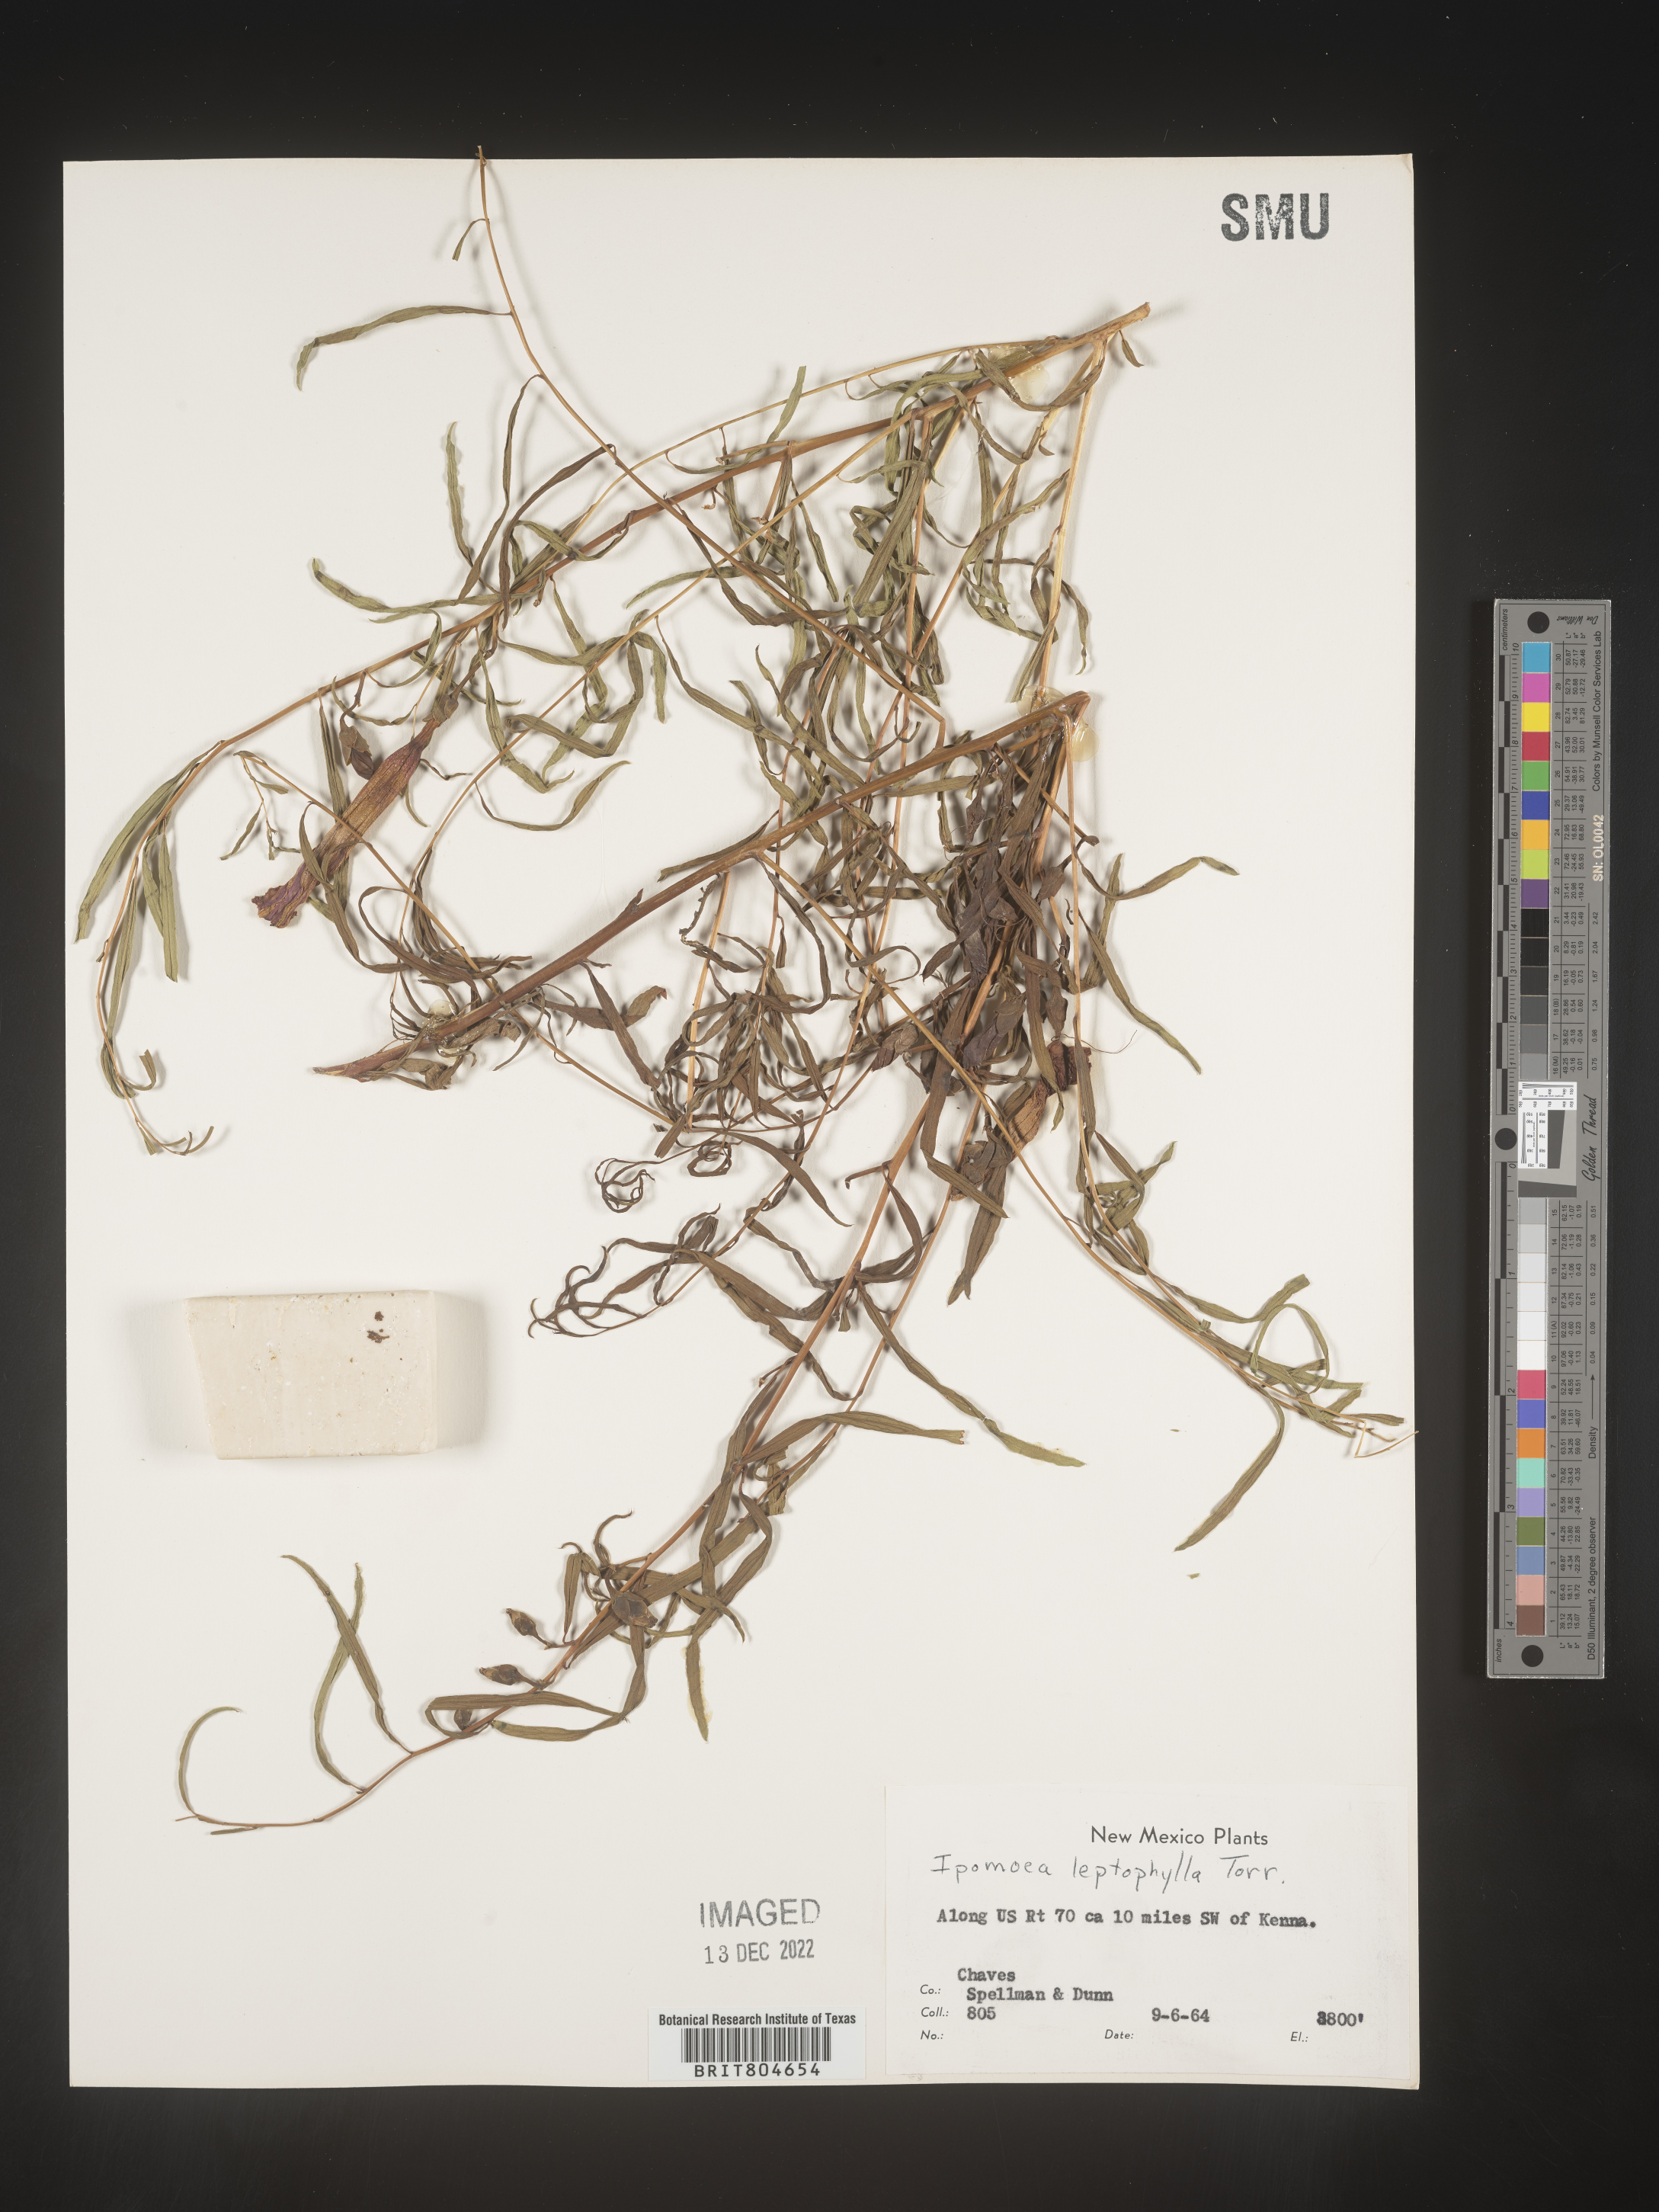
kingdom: Plantae
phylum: Tracheophyta
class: Magnoliopsida
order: Solanales
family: Convolvulaceae
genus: Ipomoea
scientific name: Ipomoea leptophylla
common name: Bush moonflower
